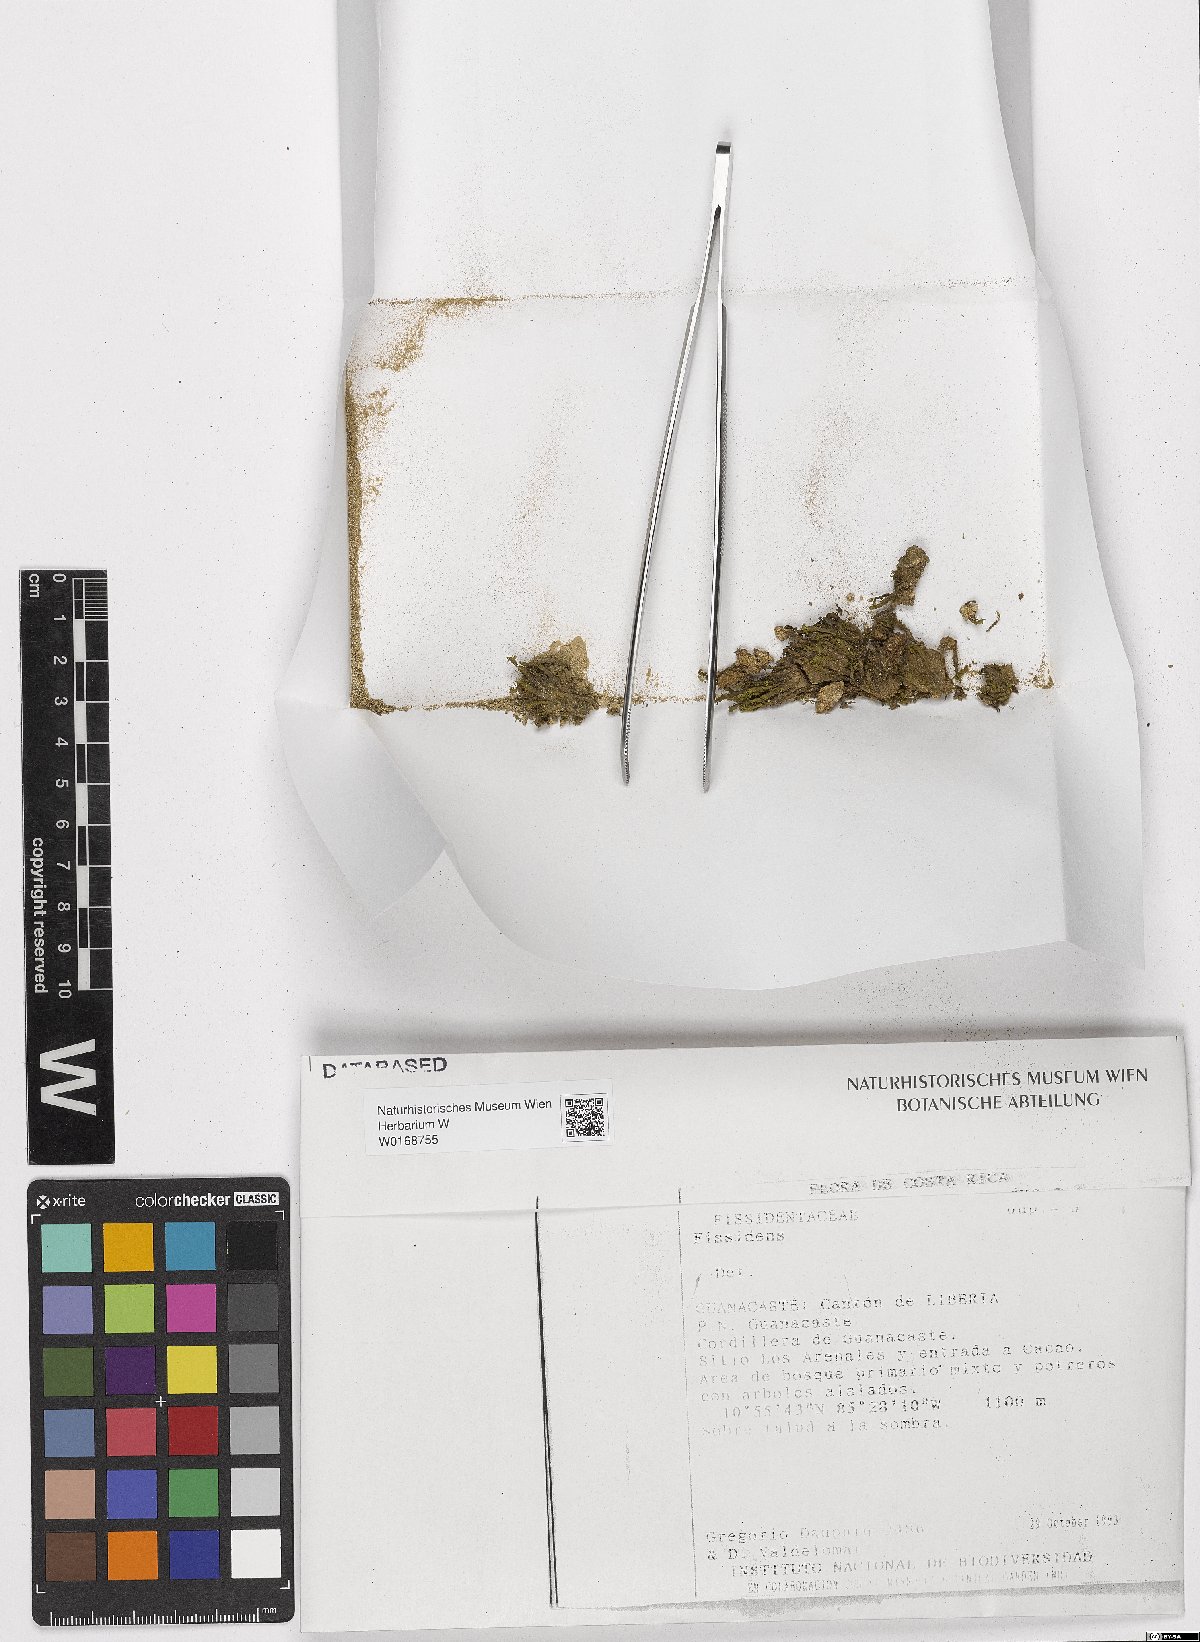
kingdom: Plantae
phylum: Bryophyta
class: Bryopsida
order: Dicranales
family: Fissidentaceae
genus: Fissidens
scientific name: Fissidens
